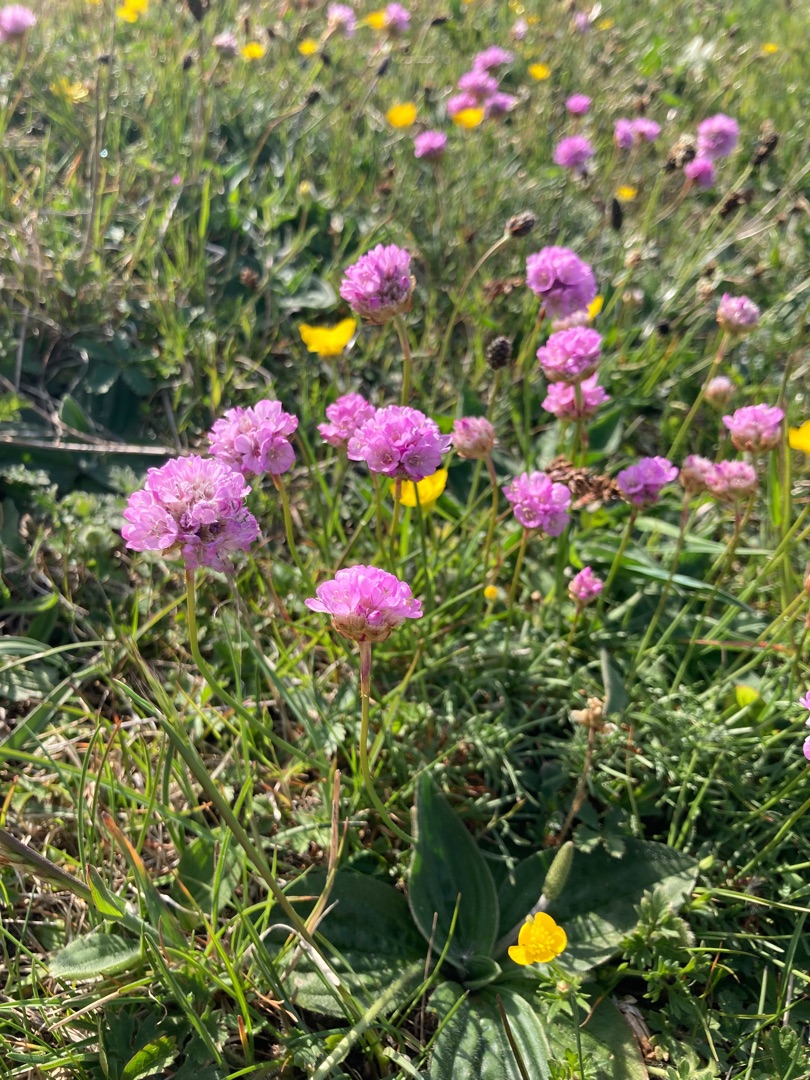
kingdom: Plantae
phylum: Tracheophyta
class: Magnoliopsida
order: Caryophyllales
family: Plumbaginaceae
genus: Armeria
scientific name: Armeria maritima
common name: Engelskgræs
